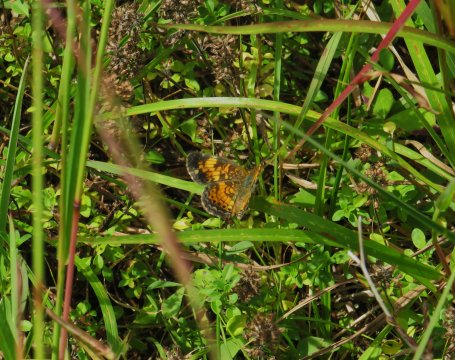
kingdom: Animalia
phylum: Arthropoda
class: Insecta
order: Lepidoptera
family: Nymphalidae
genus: Phyciodes
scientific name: Phyciodes tharos
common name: Pearl Crescent
